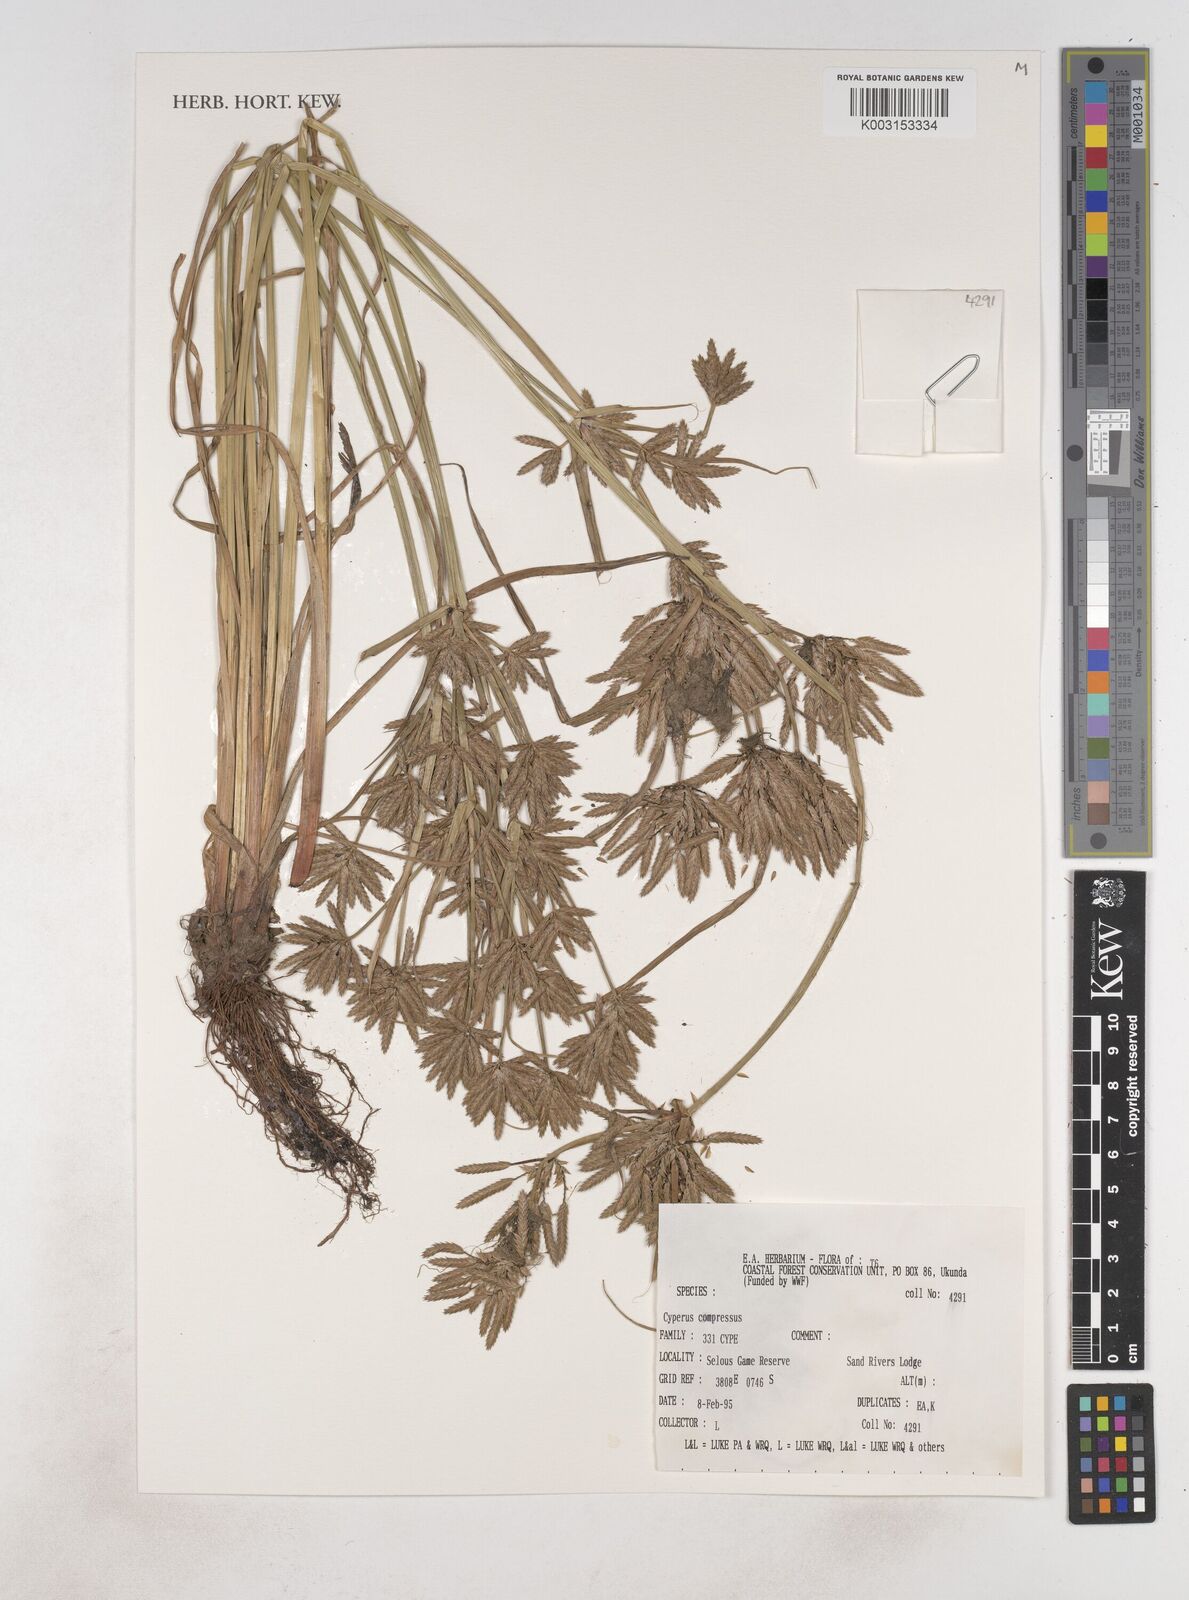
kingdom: Plantae
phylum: Tracheophyta
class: Liliopsida
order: Poales
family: Cyperaceae
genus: Cyperus
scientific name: Cyperus compressus
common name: Poorland flatsedge
